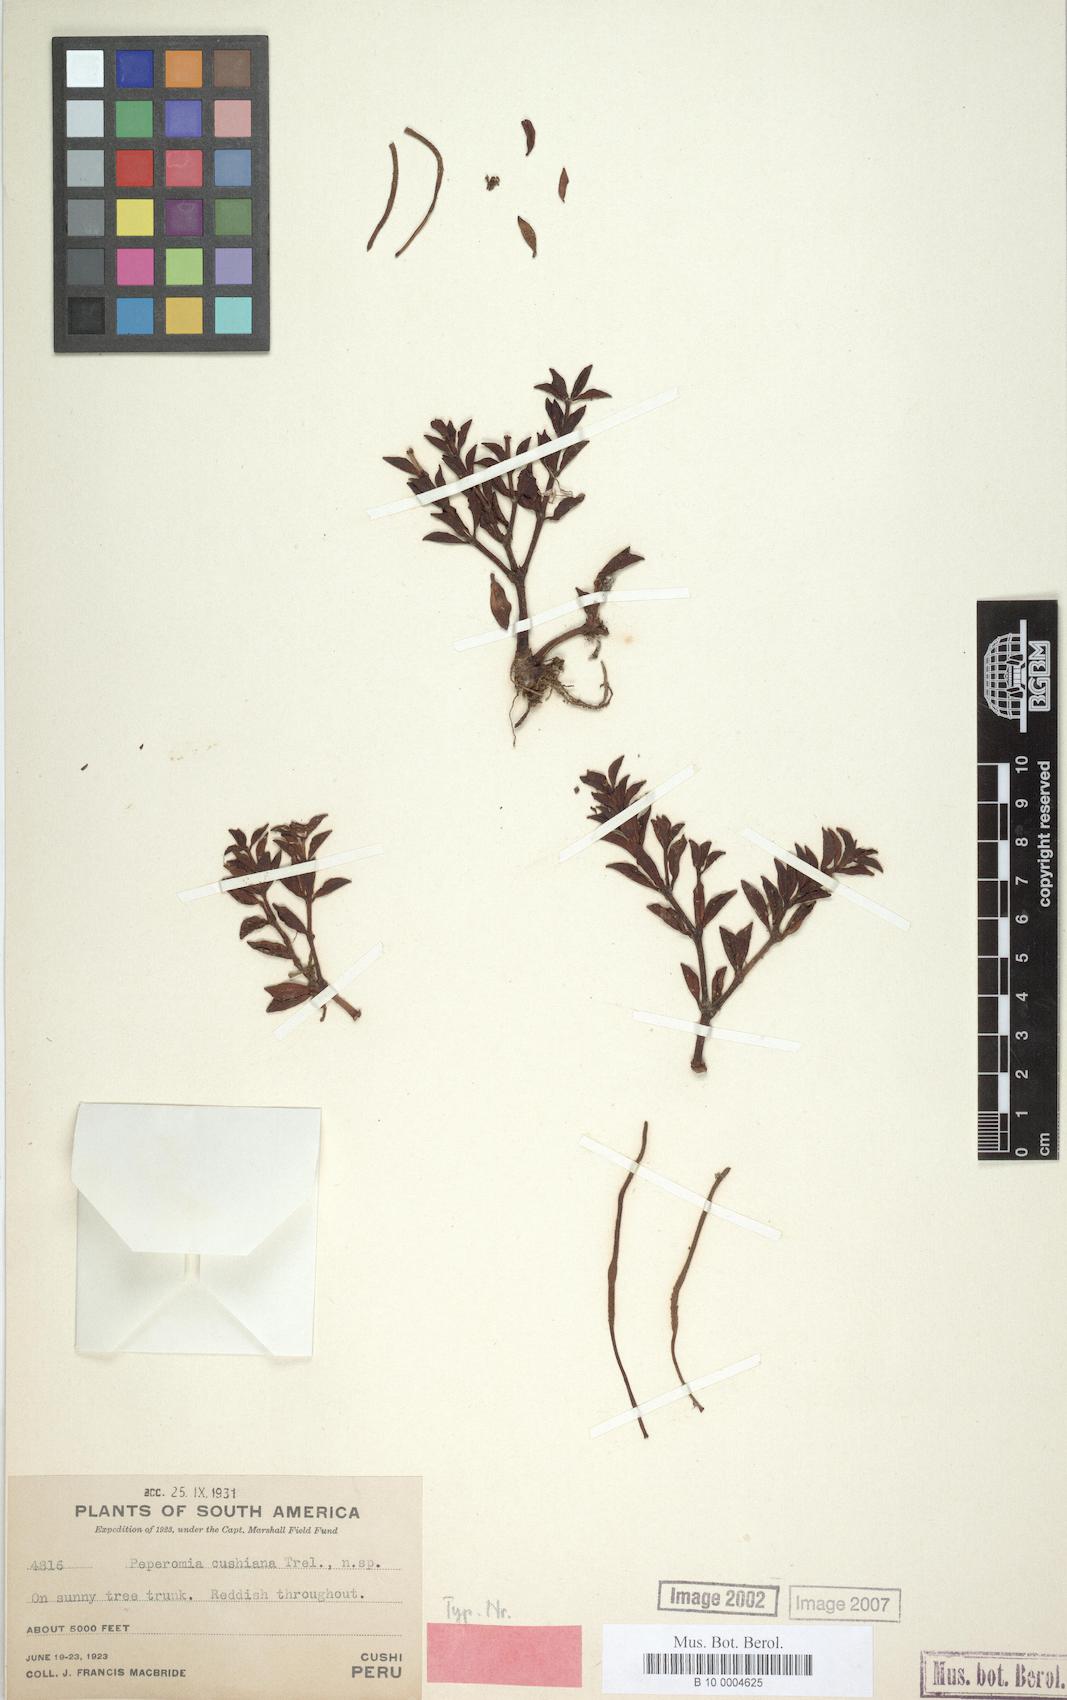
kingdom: Plantae
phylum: Tracheophyta
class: Magnoliopsida
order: Piperales
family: Piperaceae
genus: Peperomia
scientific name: Peperomia cushiana
